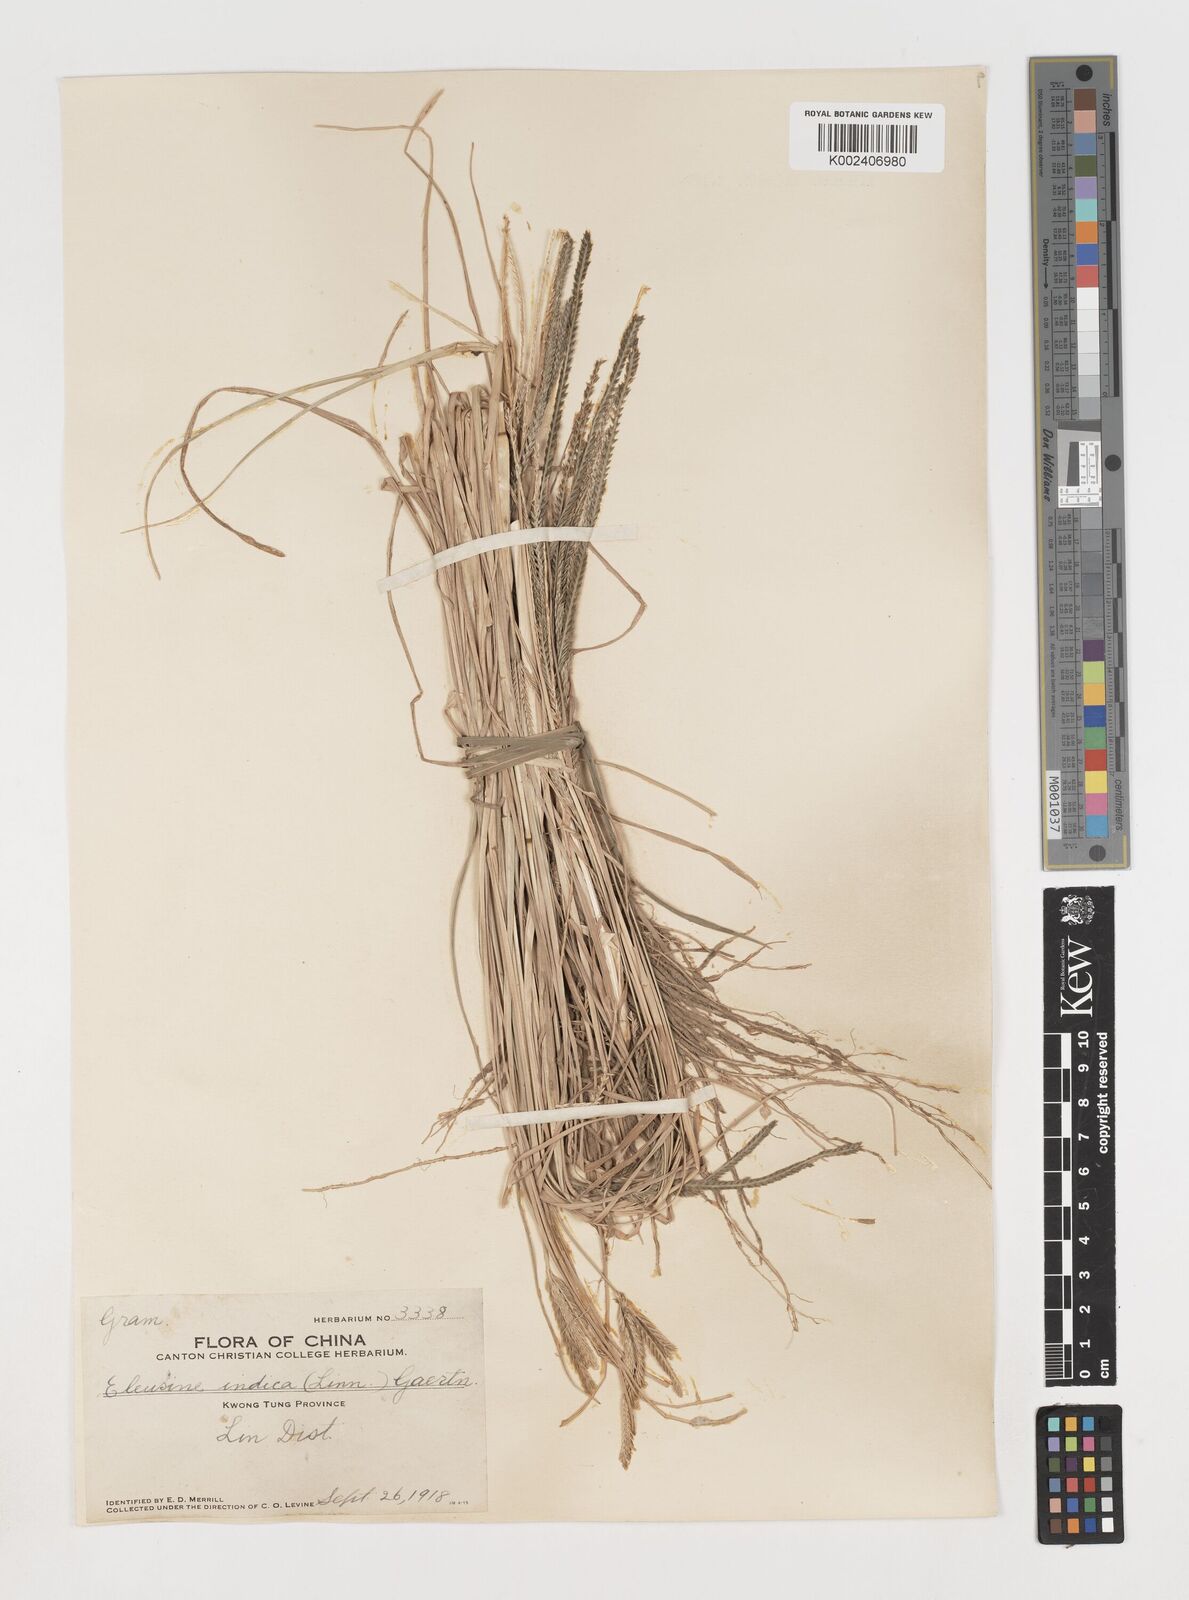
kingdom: Plantae
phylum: Tracheophyta
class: Liliopsida
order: Poales
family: Poaceae
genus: Eleusine
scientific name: Eleusine indica
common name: Yard-grass
